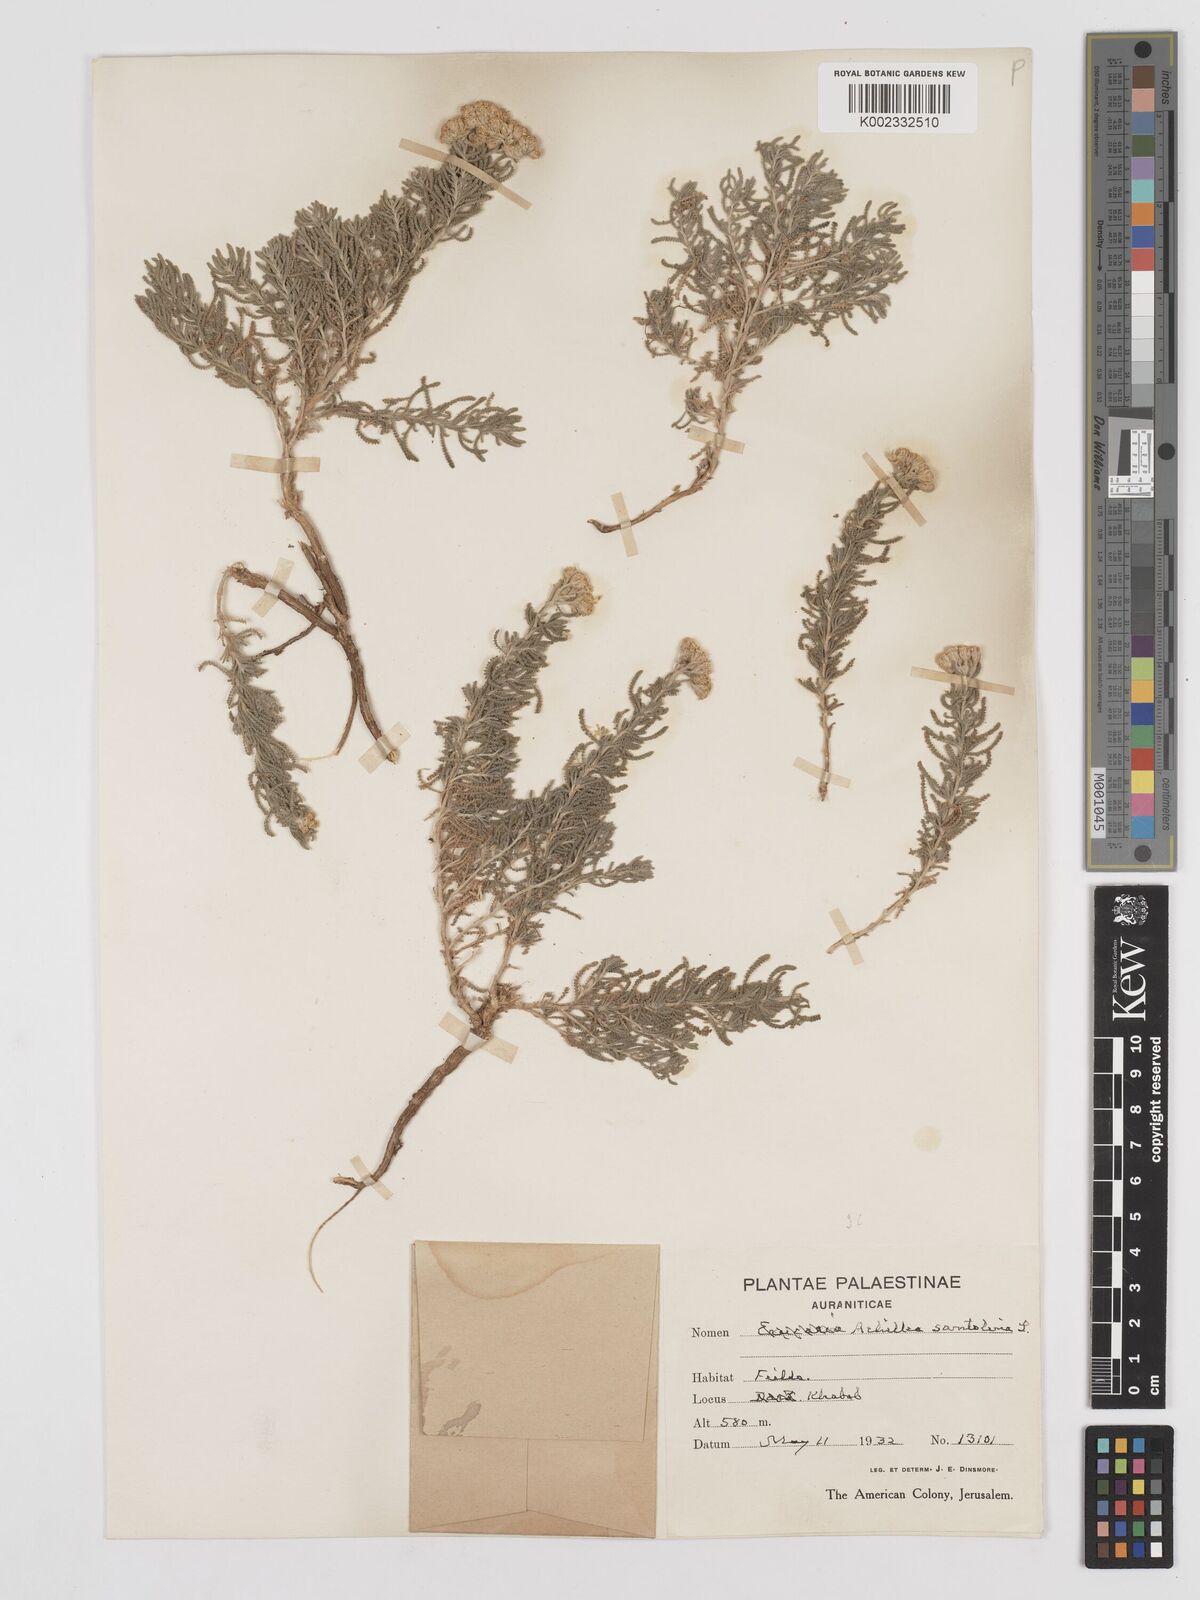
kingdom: Plantae
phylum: Tracheophyta
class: Magnoliopsida
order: Asterales
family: Asteraceae
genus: Achillea
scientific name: Achillea tenuifolia
